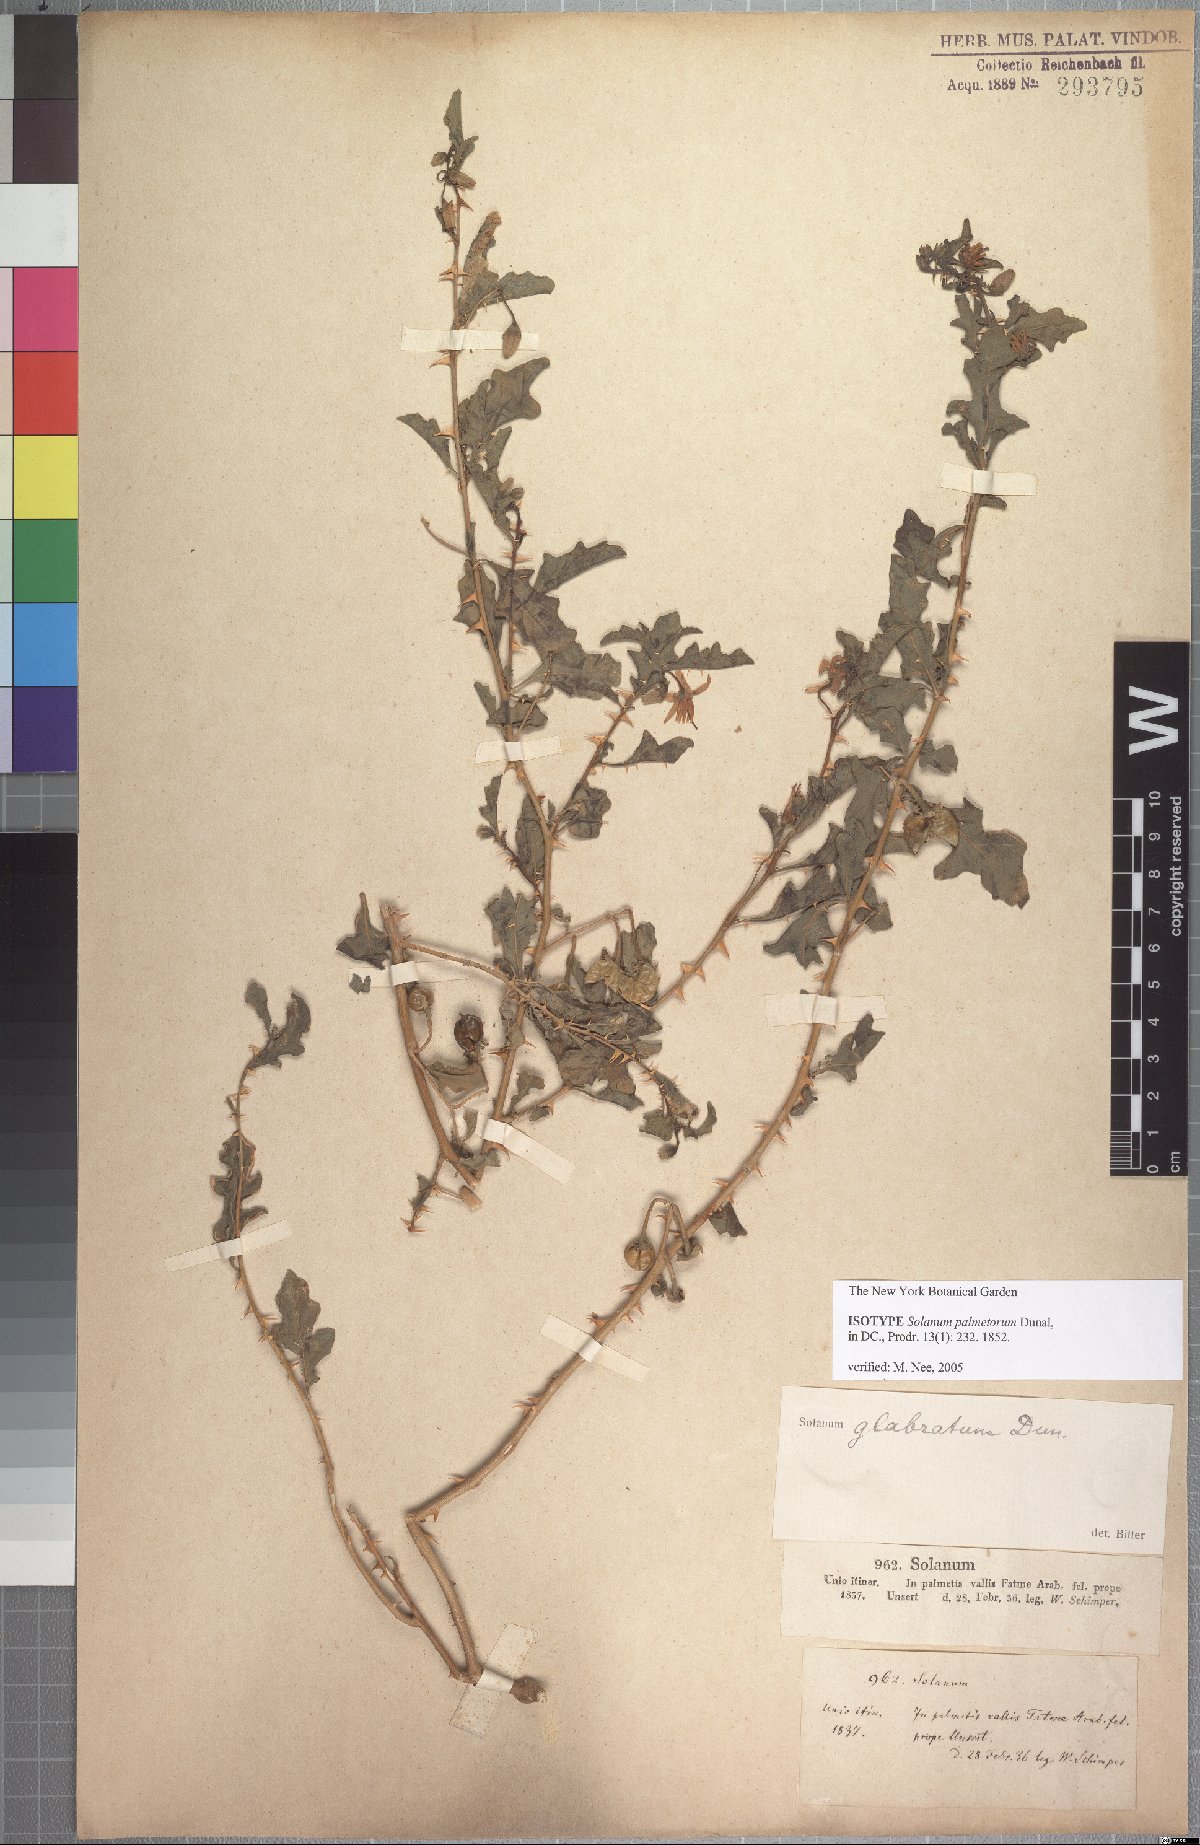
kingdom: Plantae
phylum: Tracheophyta
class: Magnoliopsida
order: Solanales
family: Solanaceae
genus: Solanum
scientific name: Solanum glabratum
